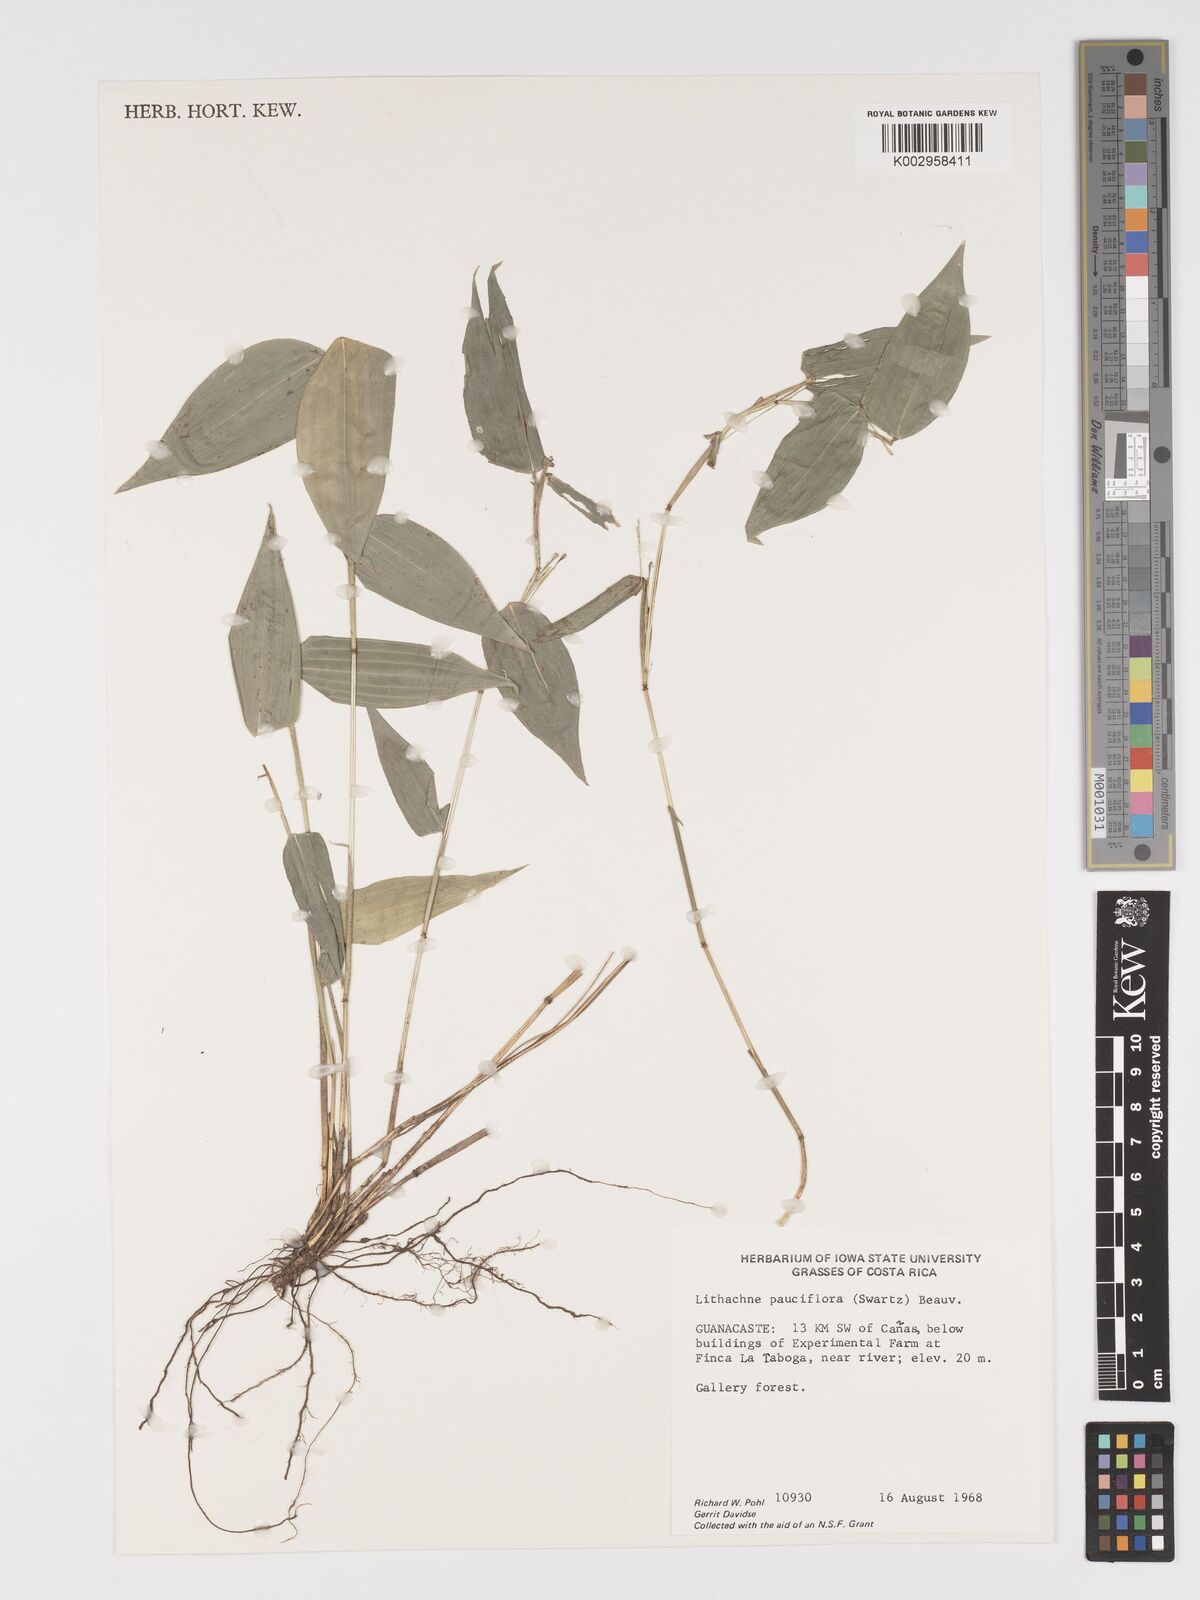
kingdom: Plantae
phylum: Tracheophyta
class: Liliopsida
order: Poales
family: Poaceae
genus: Lithachne
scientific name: Lithachne pauciflora
